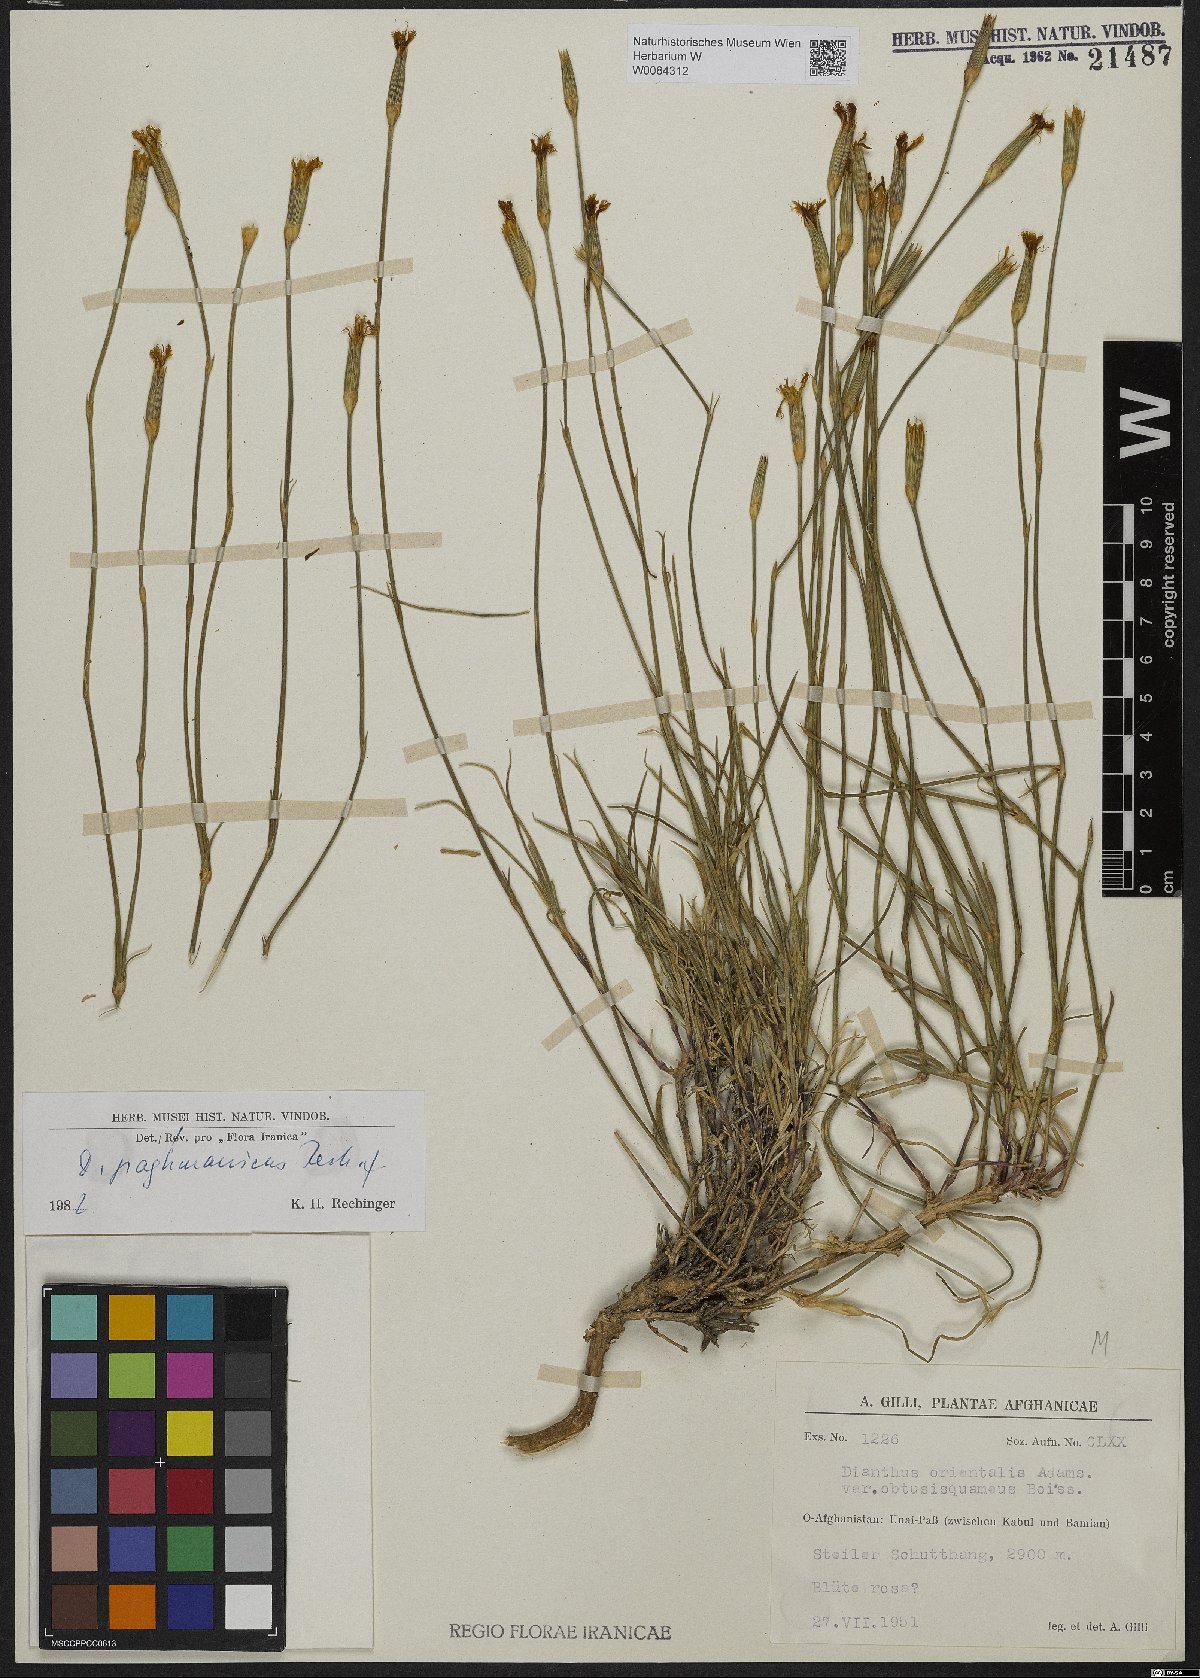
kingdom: Plantae
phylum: Tracheophyta
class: Magnoliopsida
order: Caryophyllales
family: Caryophyllaceae
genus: Dianthus
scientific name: Dianthus paghmanicus
